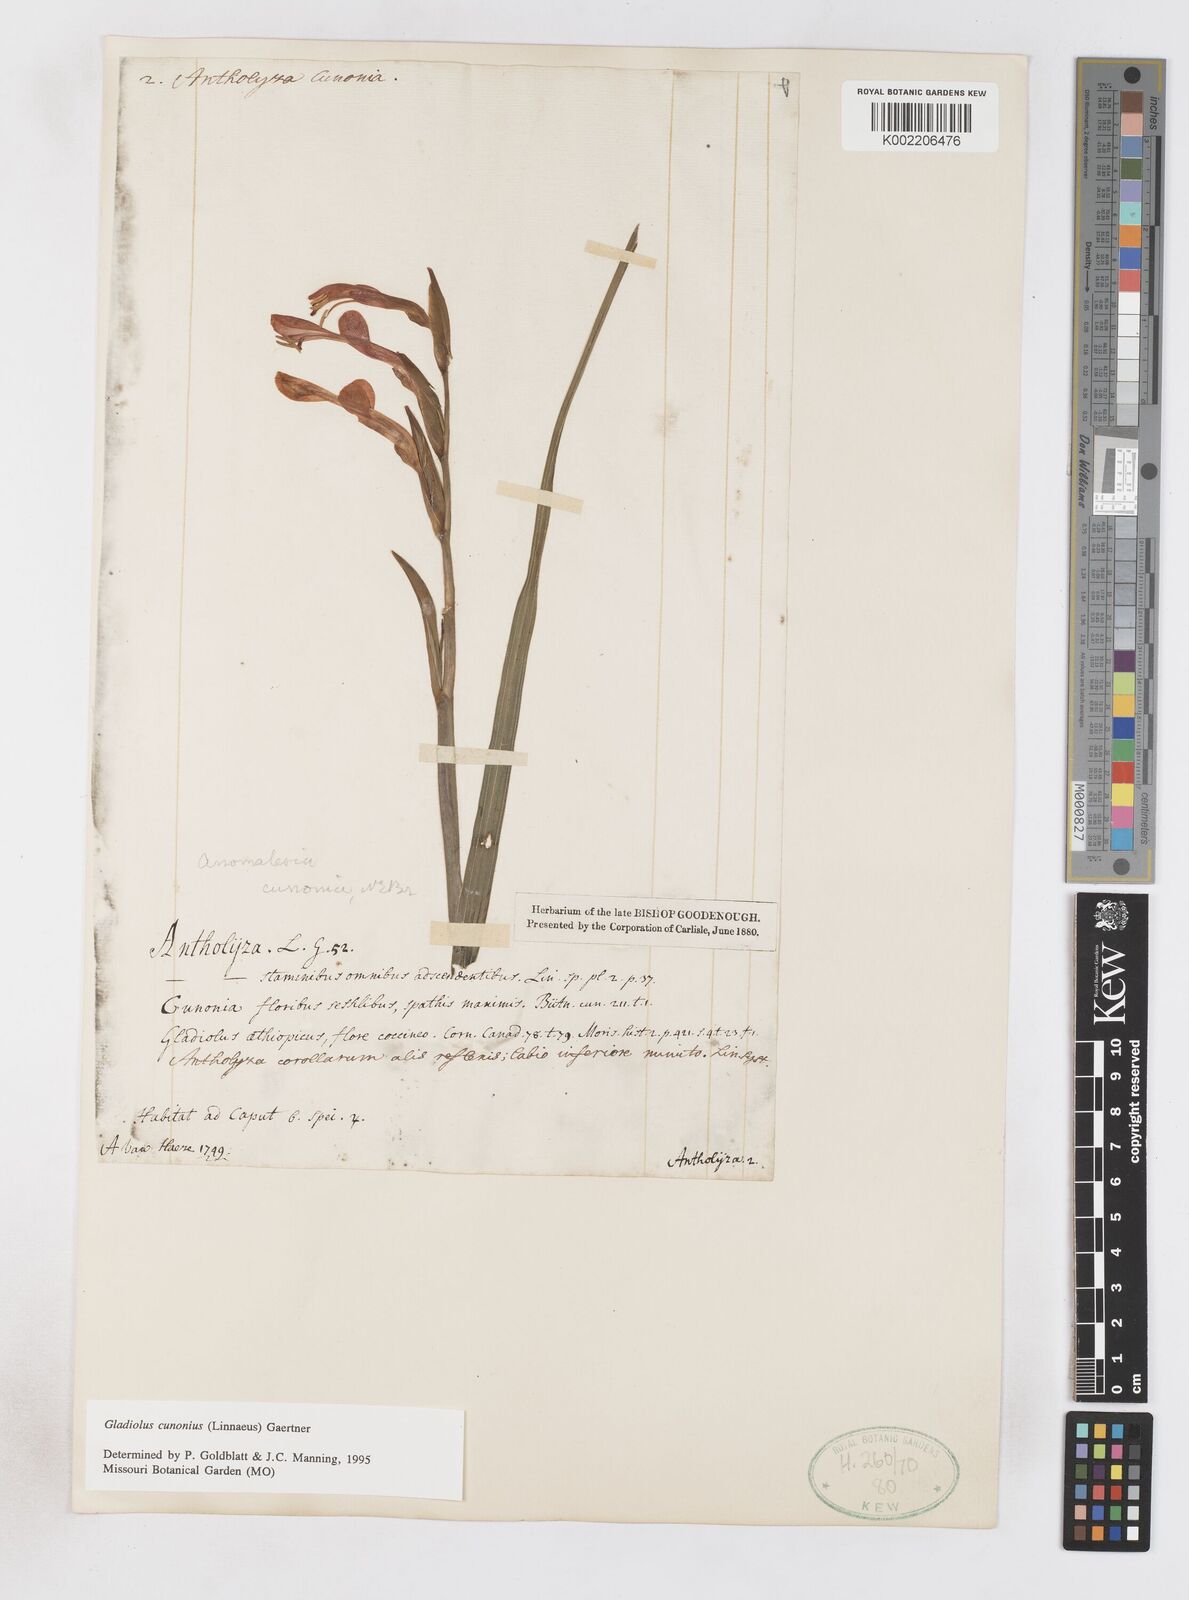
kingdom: Plantae
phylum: Tracheophyta
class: Liliopsida
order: Asparagales
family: Iridaceae
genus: Gladiolus
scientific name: Gladiolus cunonius
